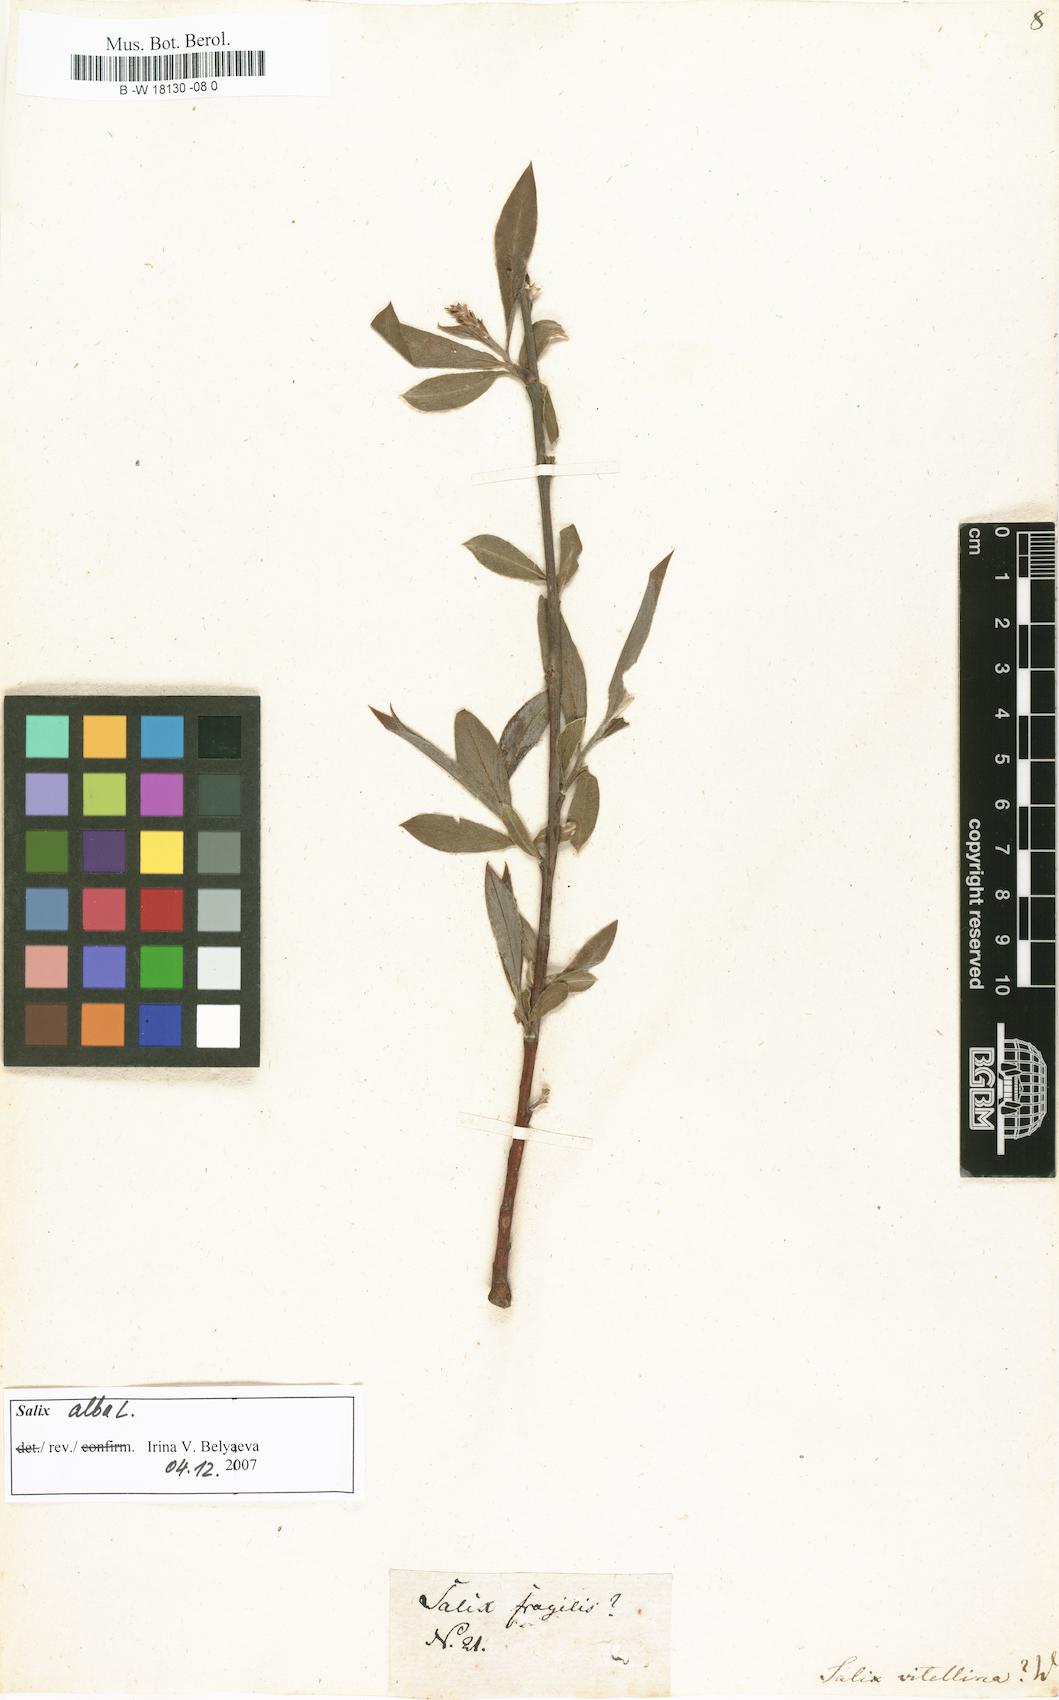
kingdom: Plantae
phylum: Tracheophyta
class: Magnoliopsida
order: Malpighiales
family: Salicaceae
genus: Salix
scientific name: Salix alba
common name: White willow
